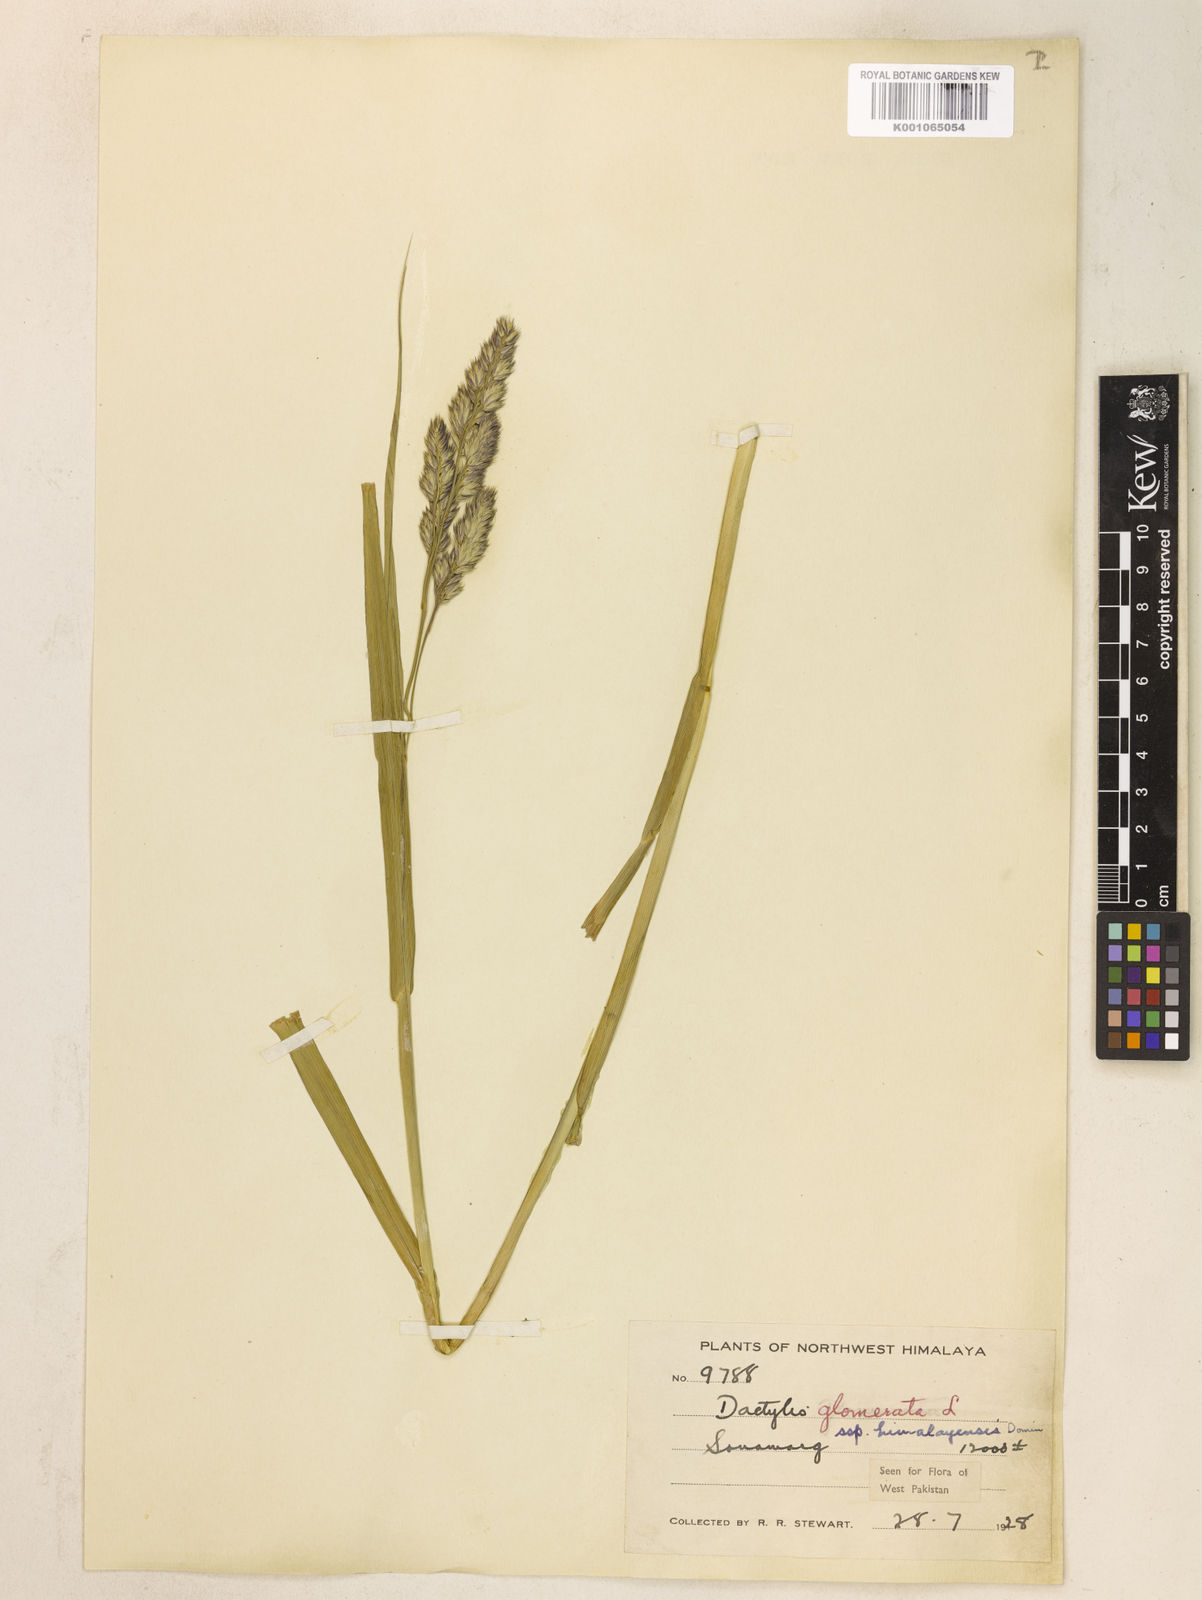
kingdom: Plantae
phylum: Tracheophyta
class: Liliopsida
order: Poales
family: Poaceae
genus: Dactylis
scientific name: Dactylis glomerata
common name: Orchardgrass
